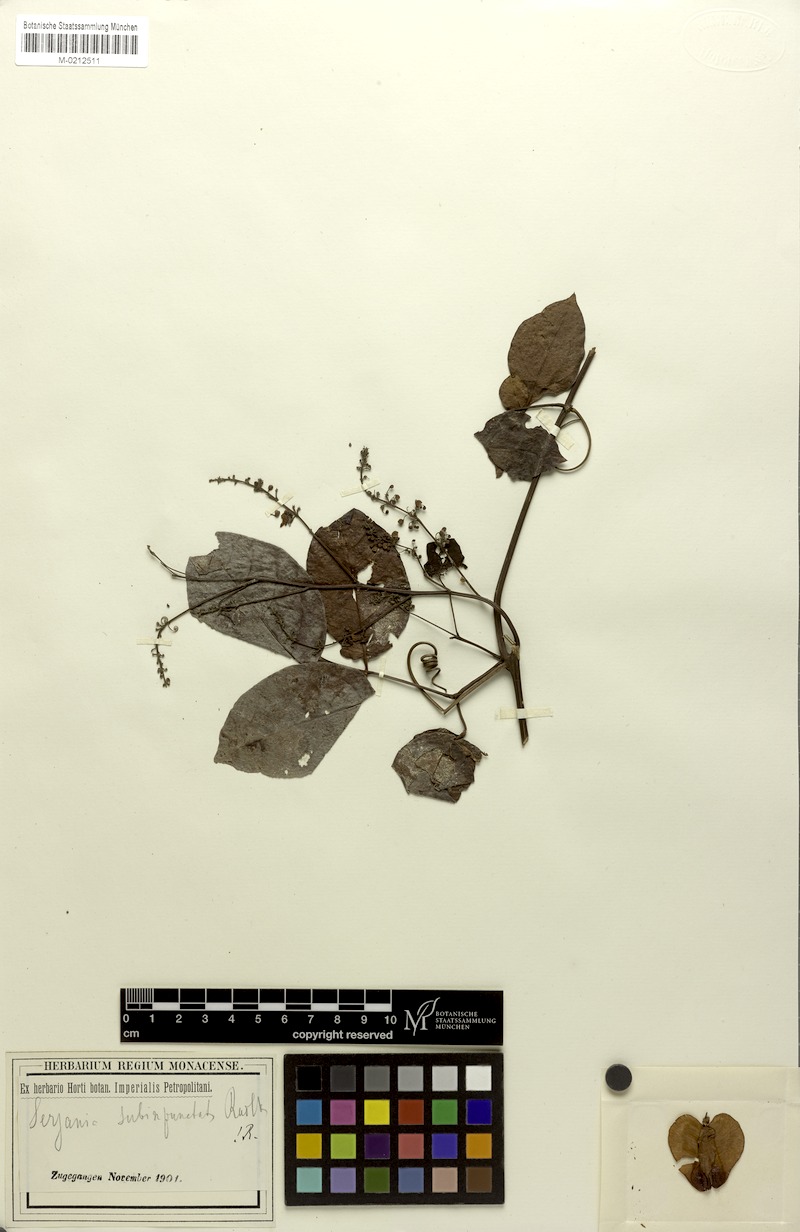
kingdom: Plantae
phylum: Tracheophyta
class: Magnoliopsida
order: Sapindales
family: Sapindaceae
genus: Serjania
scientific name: Serjania subimpunctata
